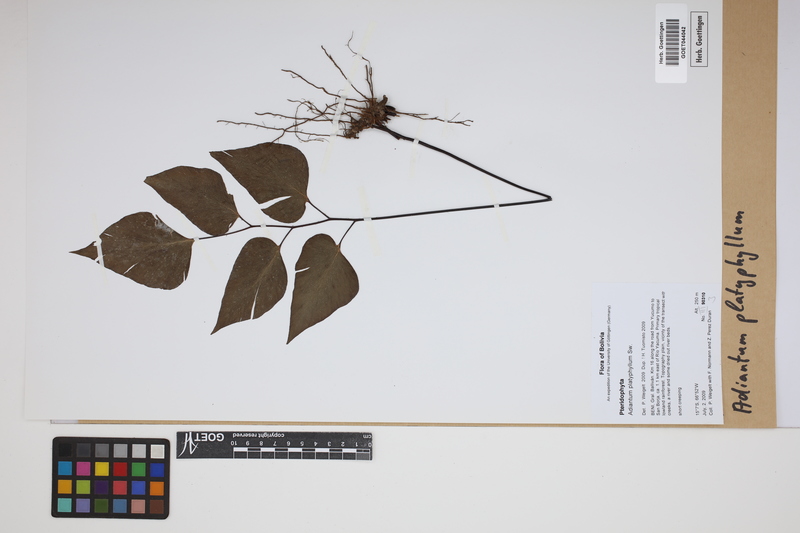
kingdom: Plantae
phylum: Tracheophyta
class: Polypodiopsida
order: Polypodiales
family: Pteridaceae
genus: Adiantum
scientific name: Adiantum platyphyllum
